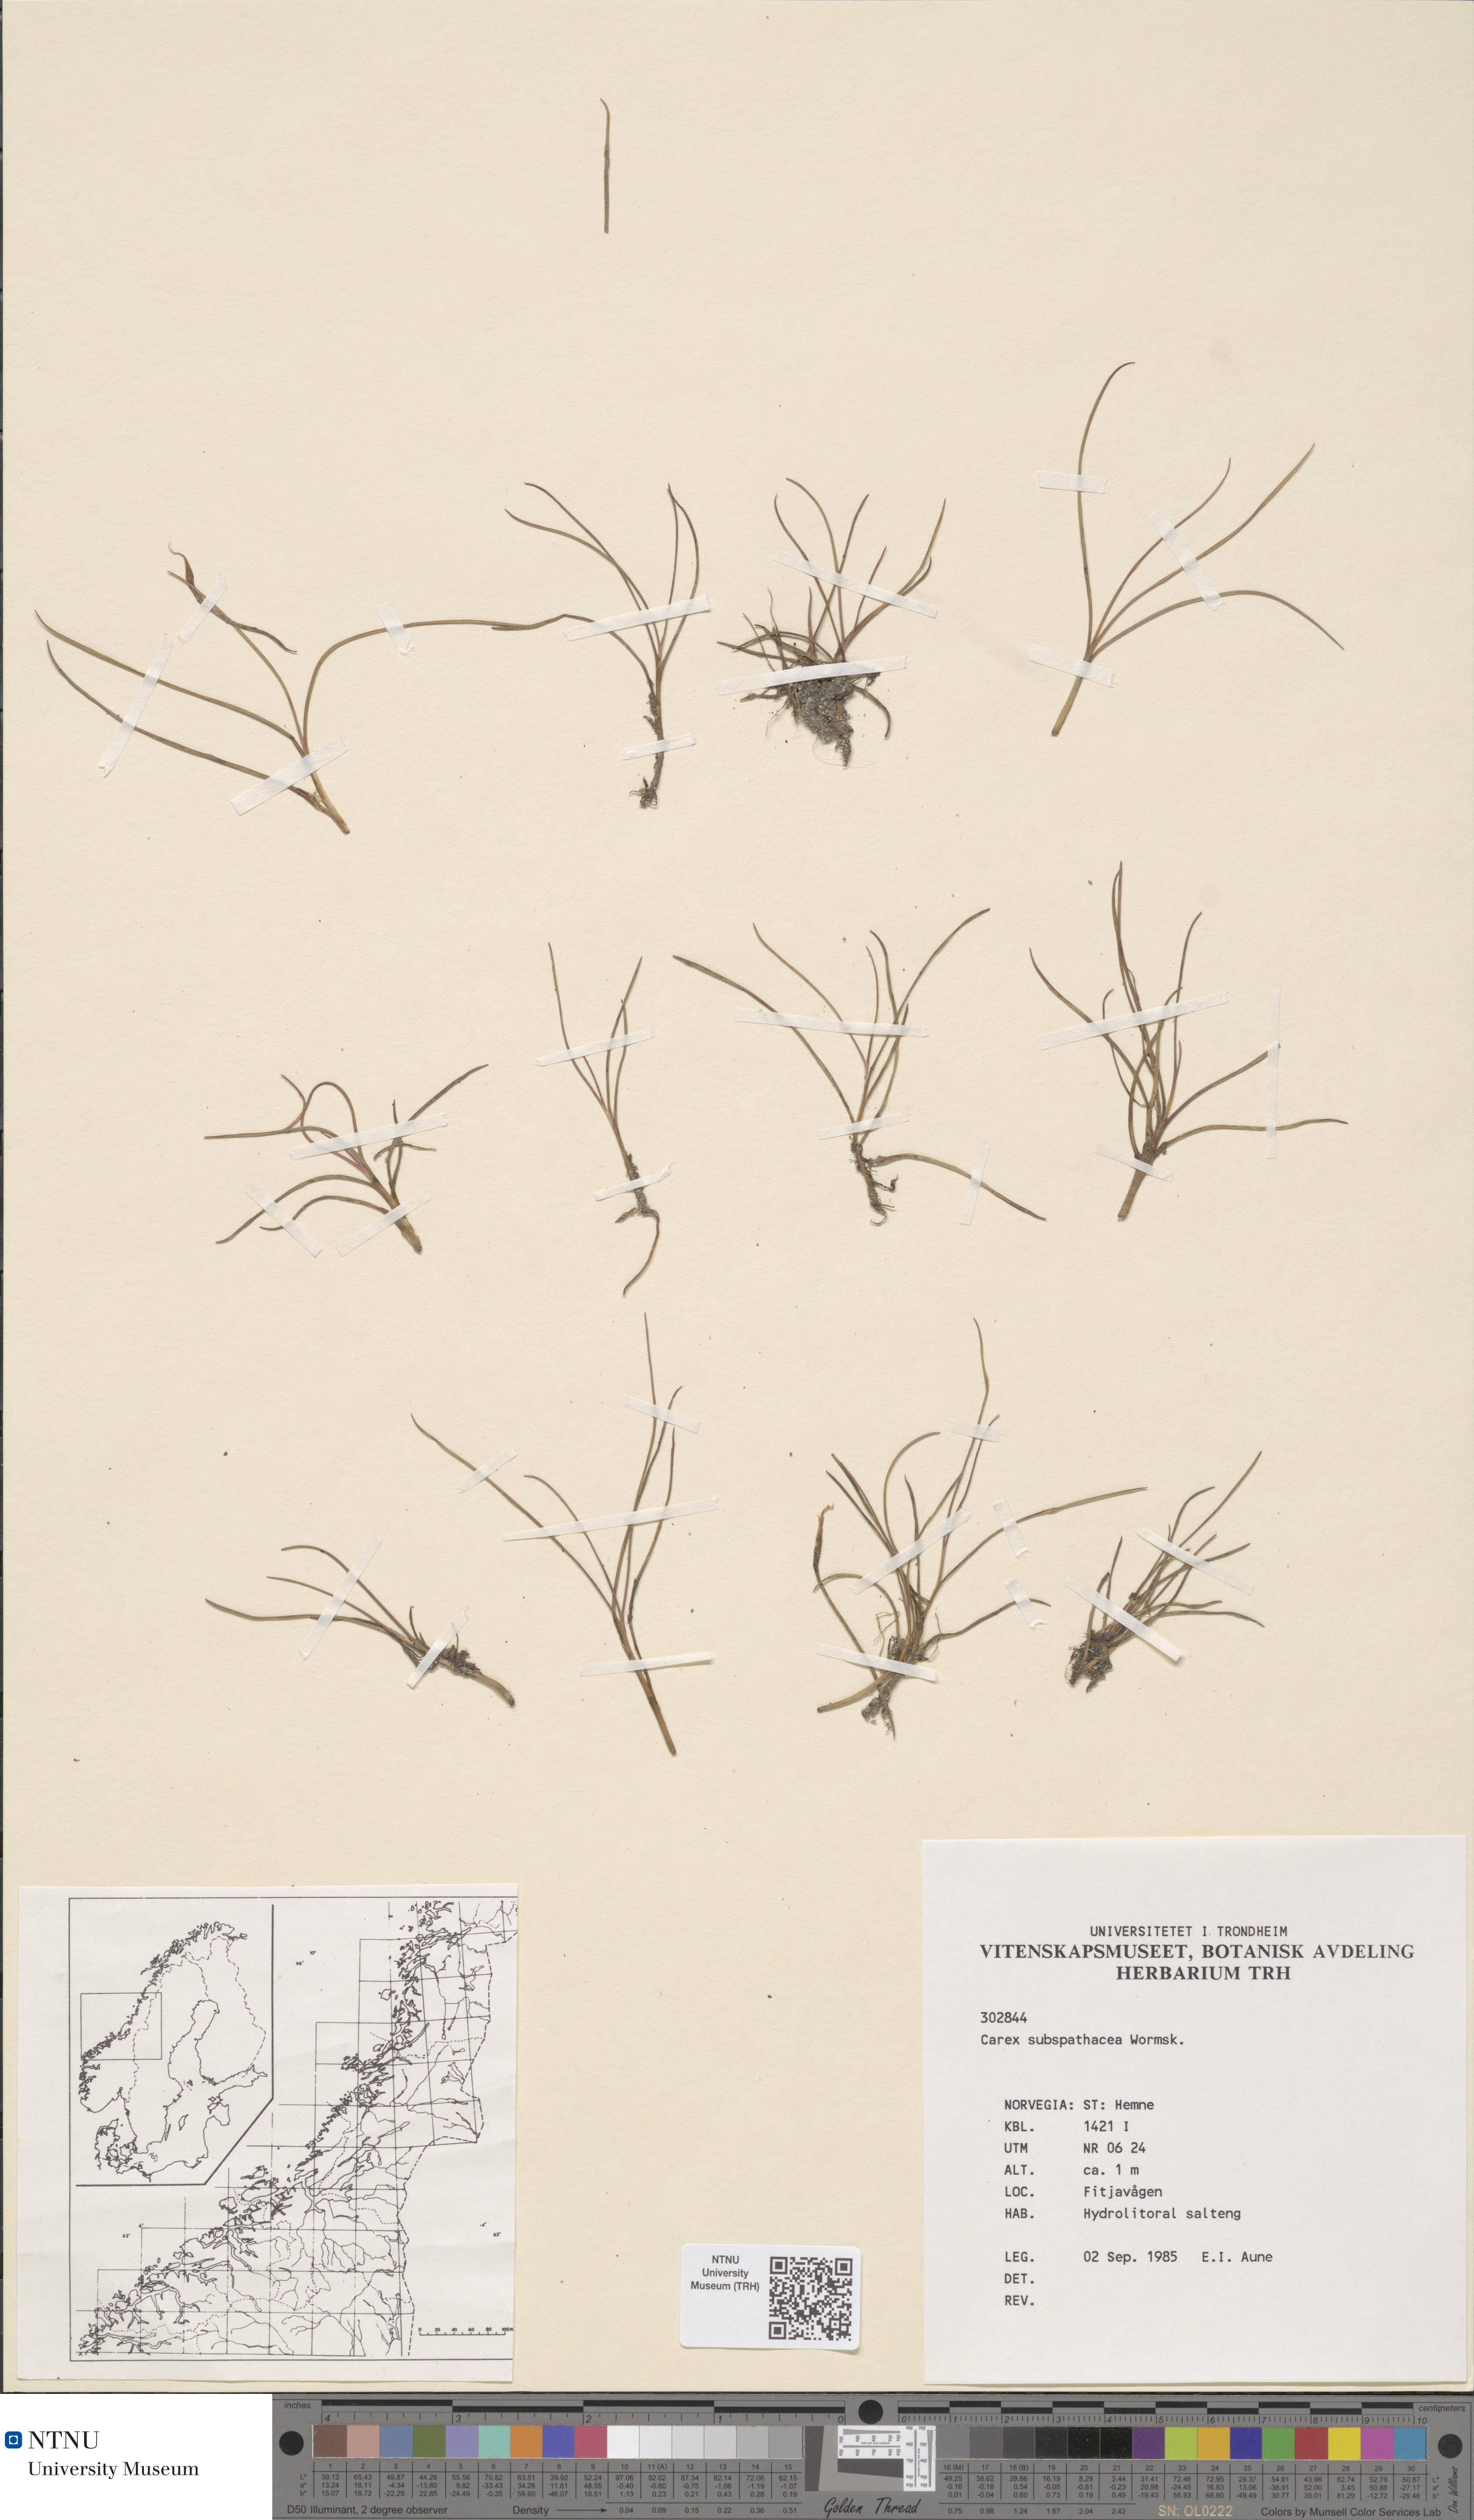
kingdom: Plantae
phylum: Tracheophyta
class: Liliopsida
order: Poales
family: Cyperaceae
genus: Carex
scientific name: Carex subspathacea
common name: Hoppner's sedge
